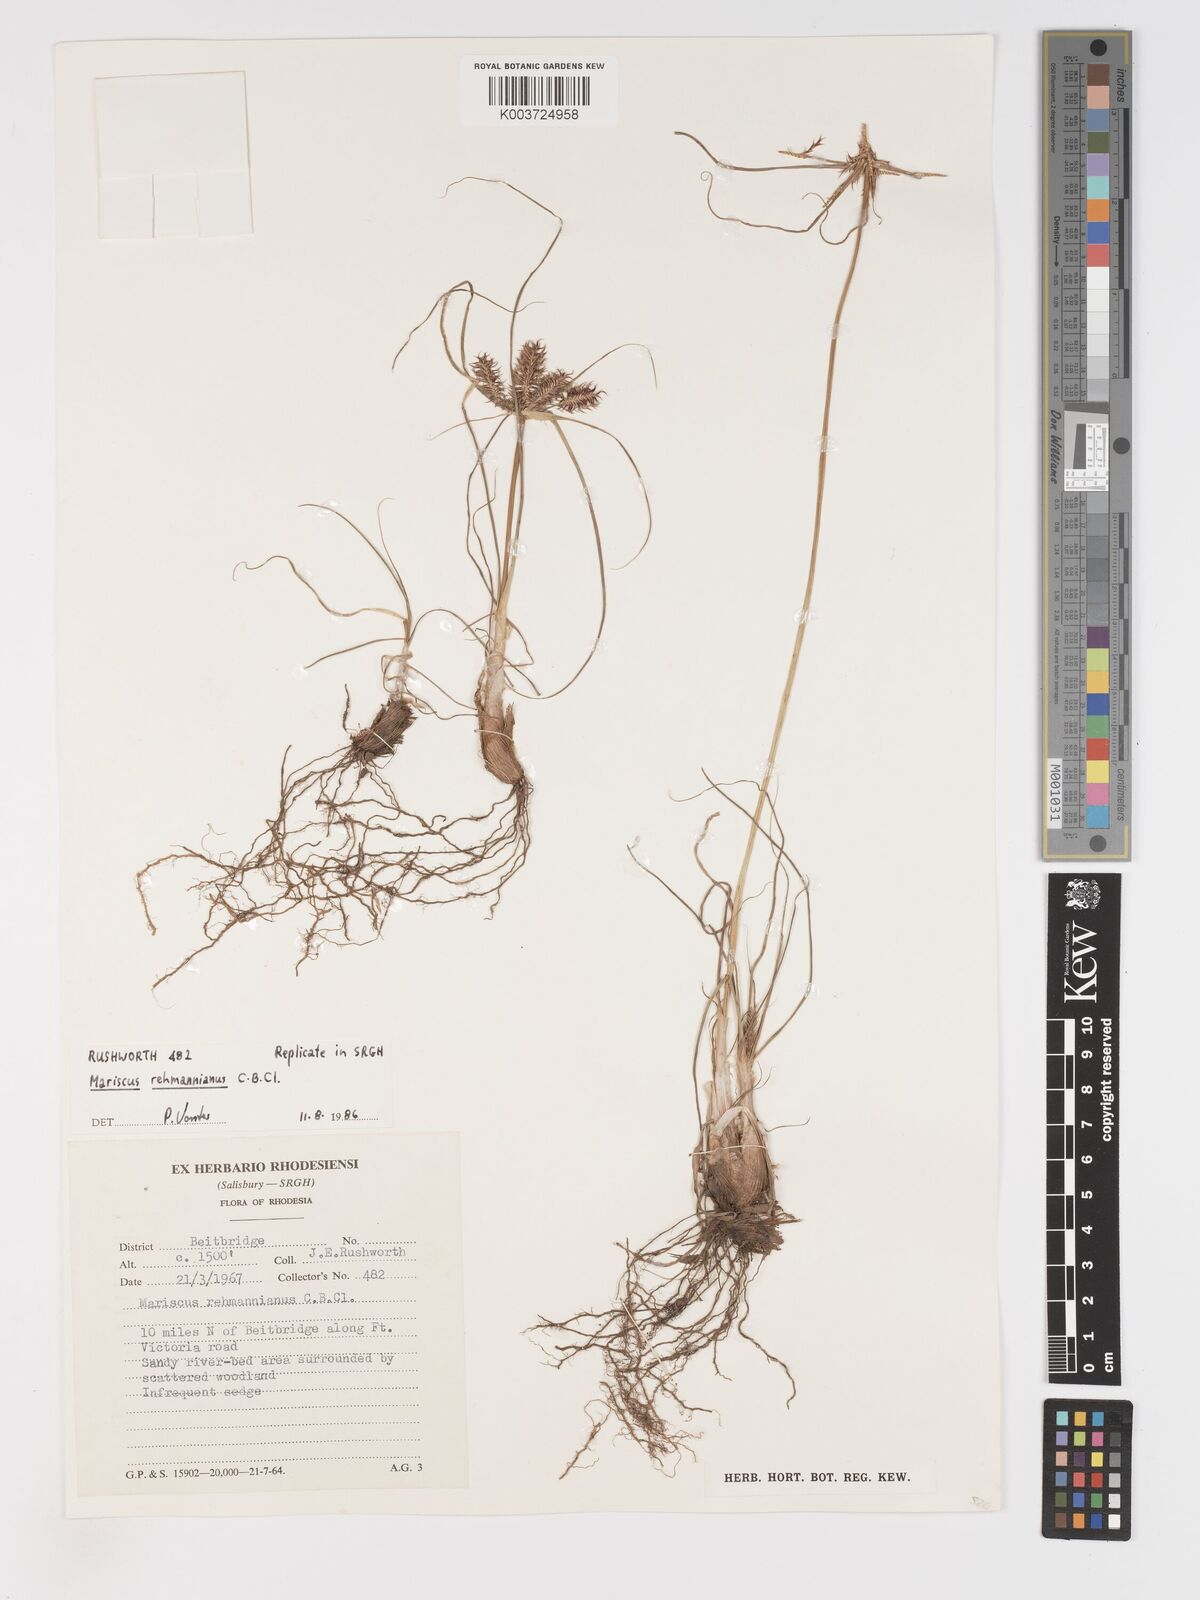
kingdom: Plantae
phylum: Tracheophyta
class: Liliopsida
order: Poales
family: Cyperaceae
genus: Cyperus
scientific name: Cyperus indecorus
